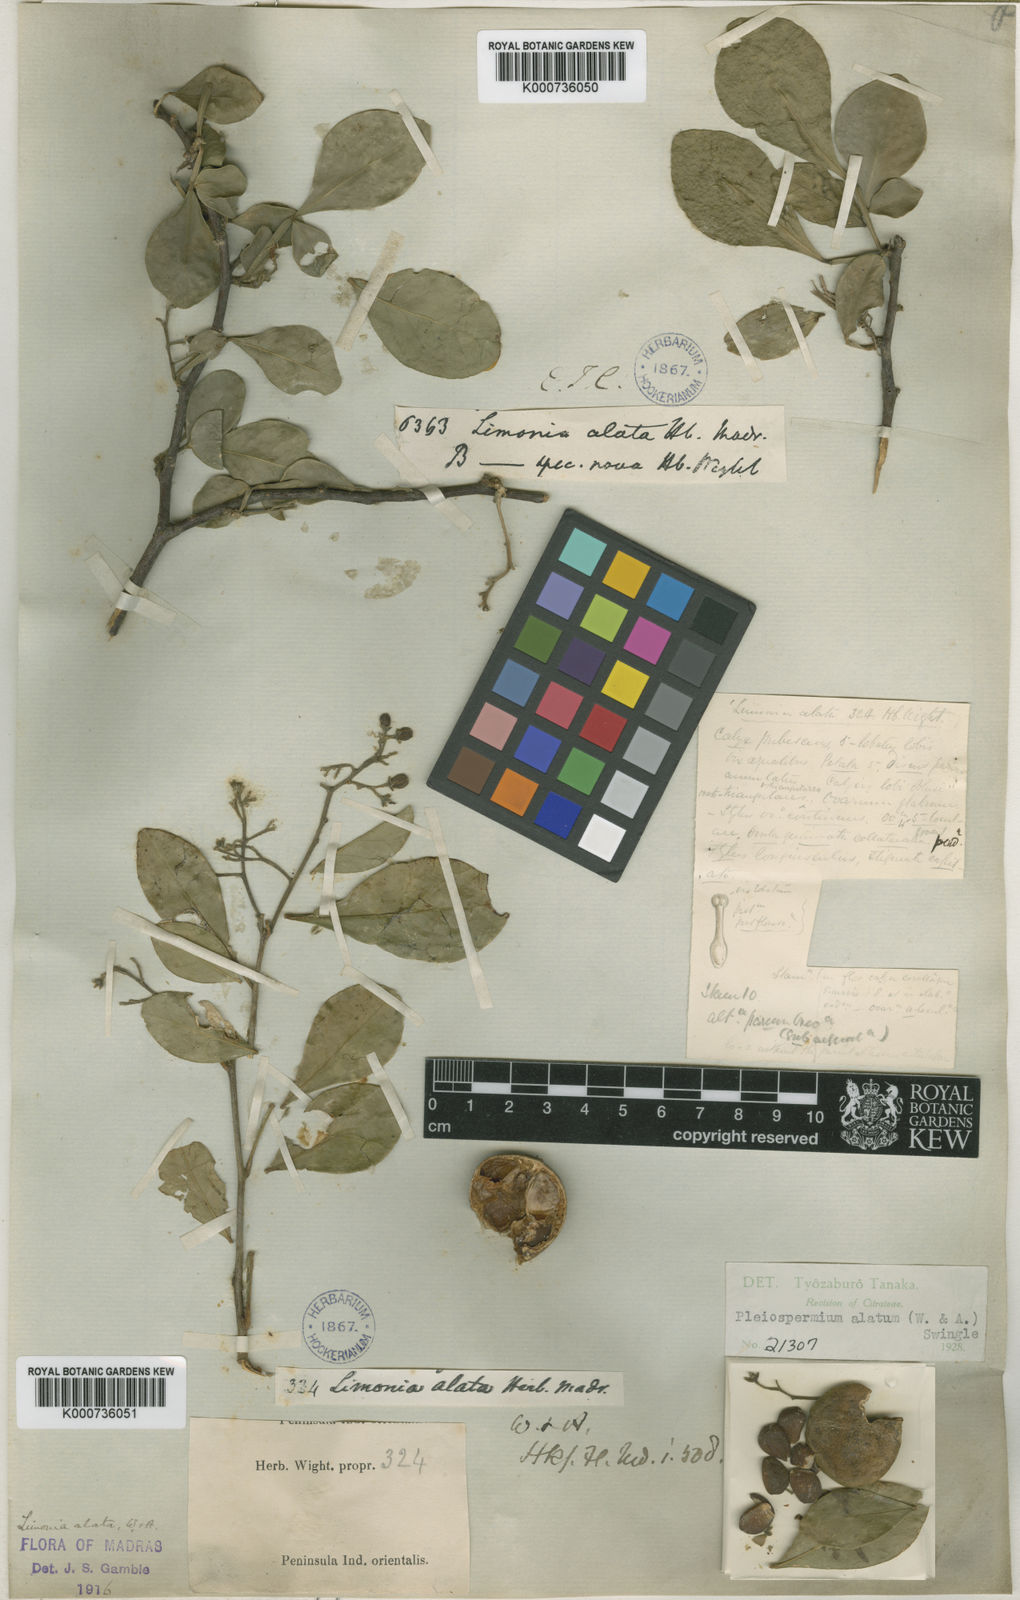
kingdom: Plantae
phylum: Tracheophyta
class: Magnoliopsida
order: Sapindales
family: Rutaceae
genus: Pleiospermium
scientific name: Pleiospermium alatum
